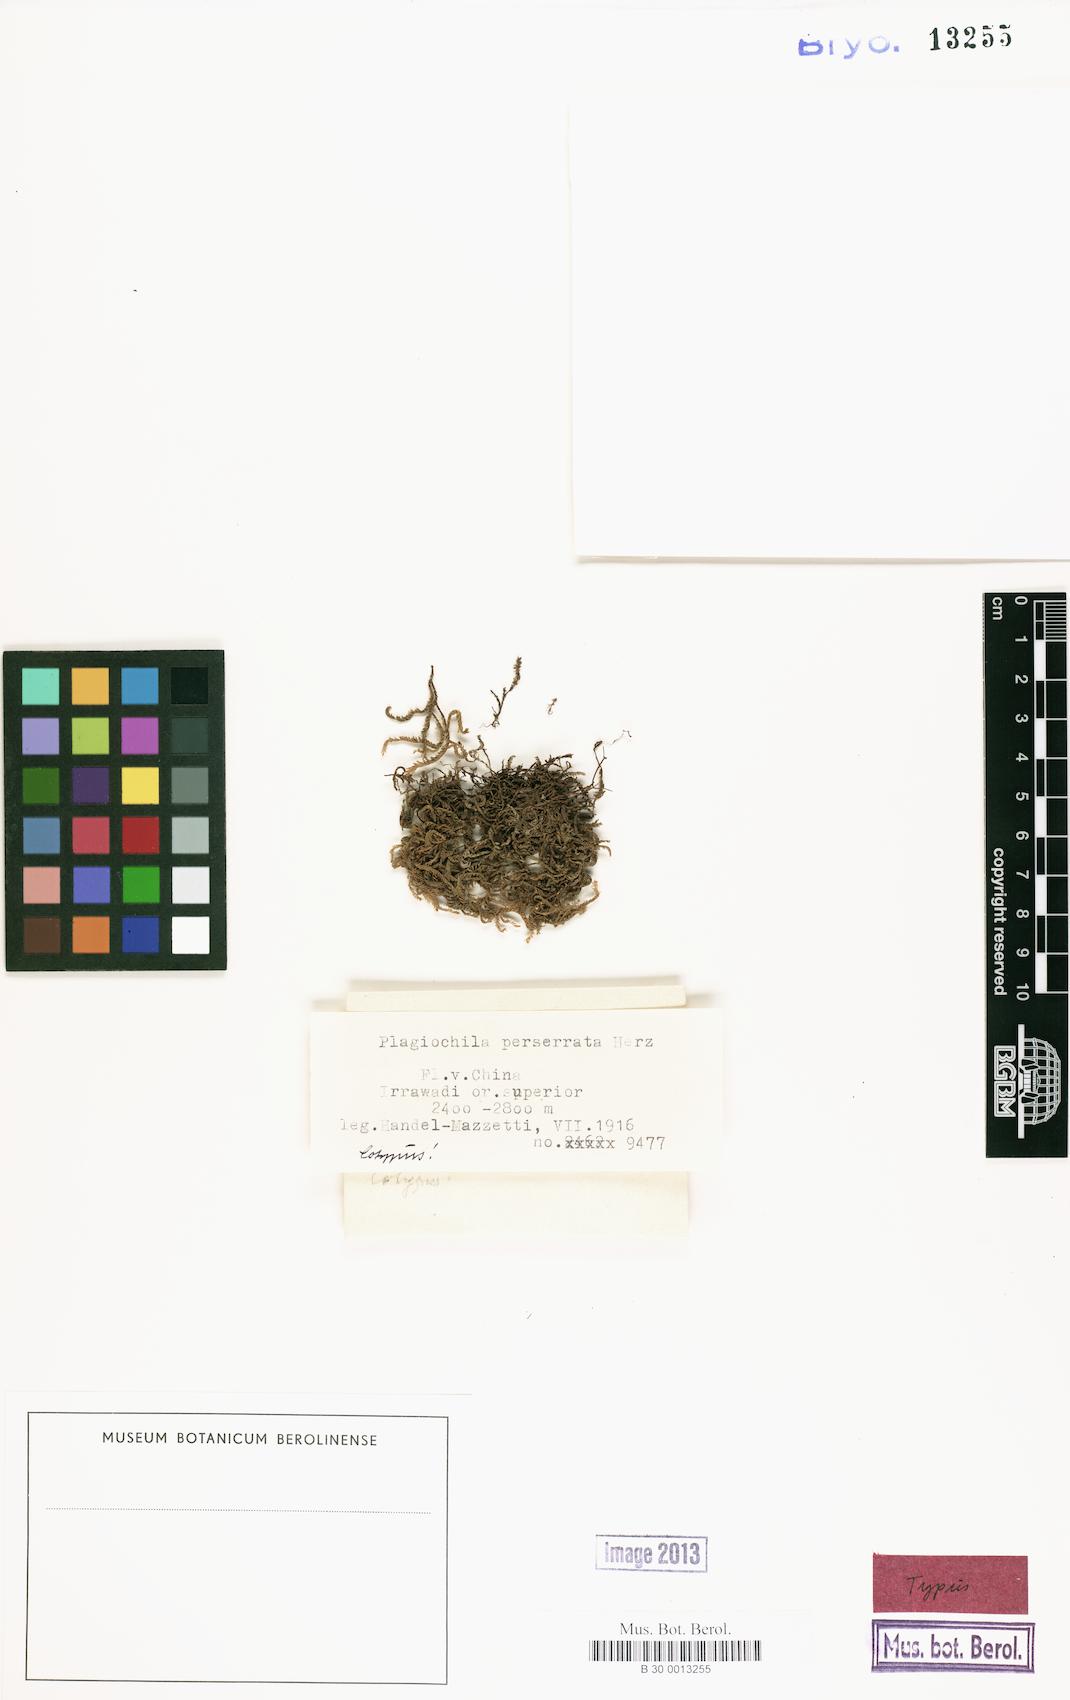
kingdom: Plantae
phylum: Marchantiophyta
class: Jungermanniopsida
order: Jungermanniales
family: Plagiochilaceae
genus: Plagiochila
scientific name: Plagiochila perserrata
